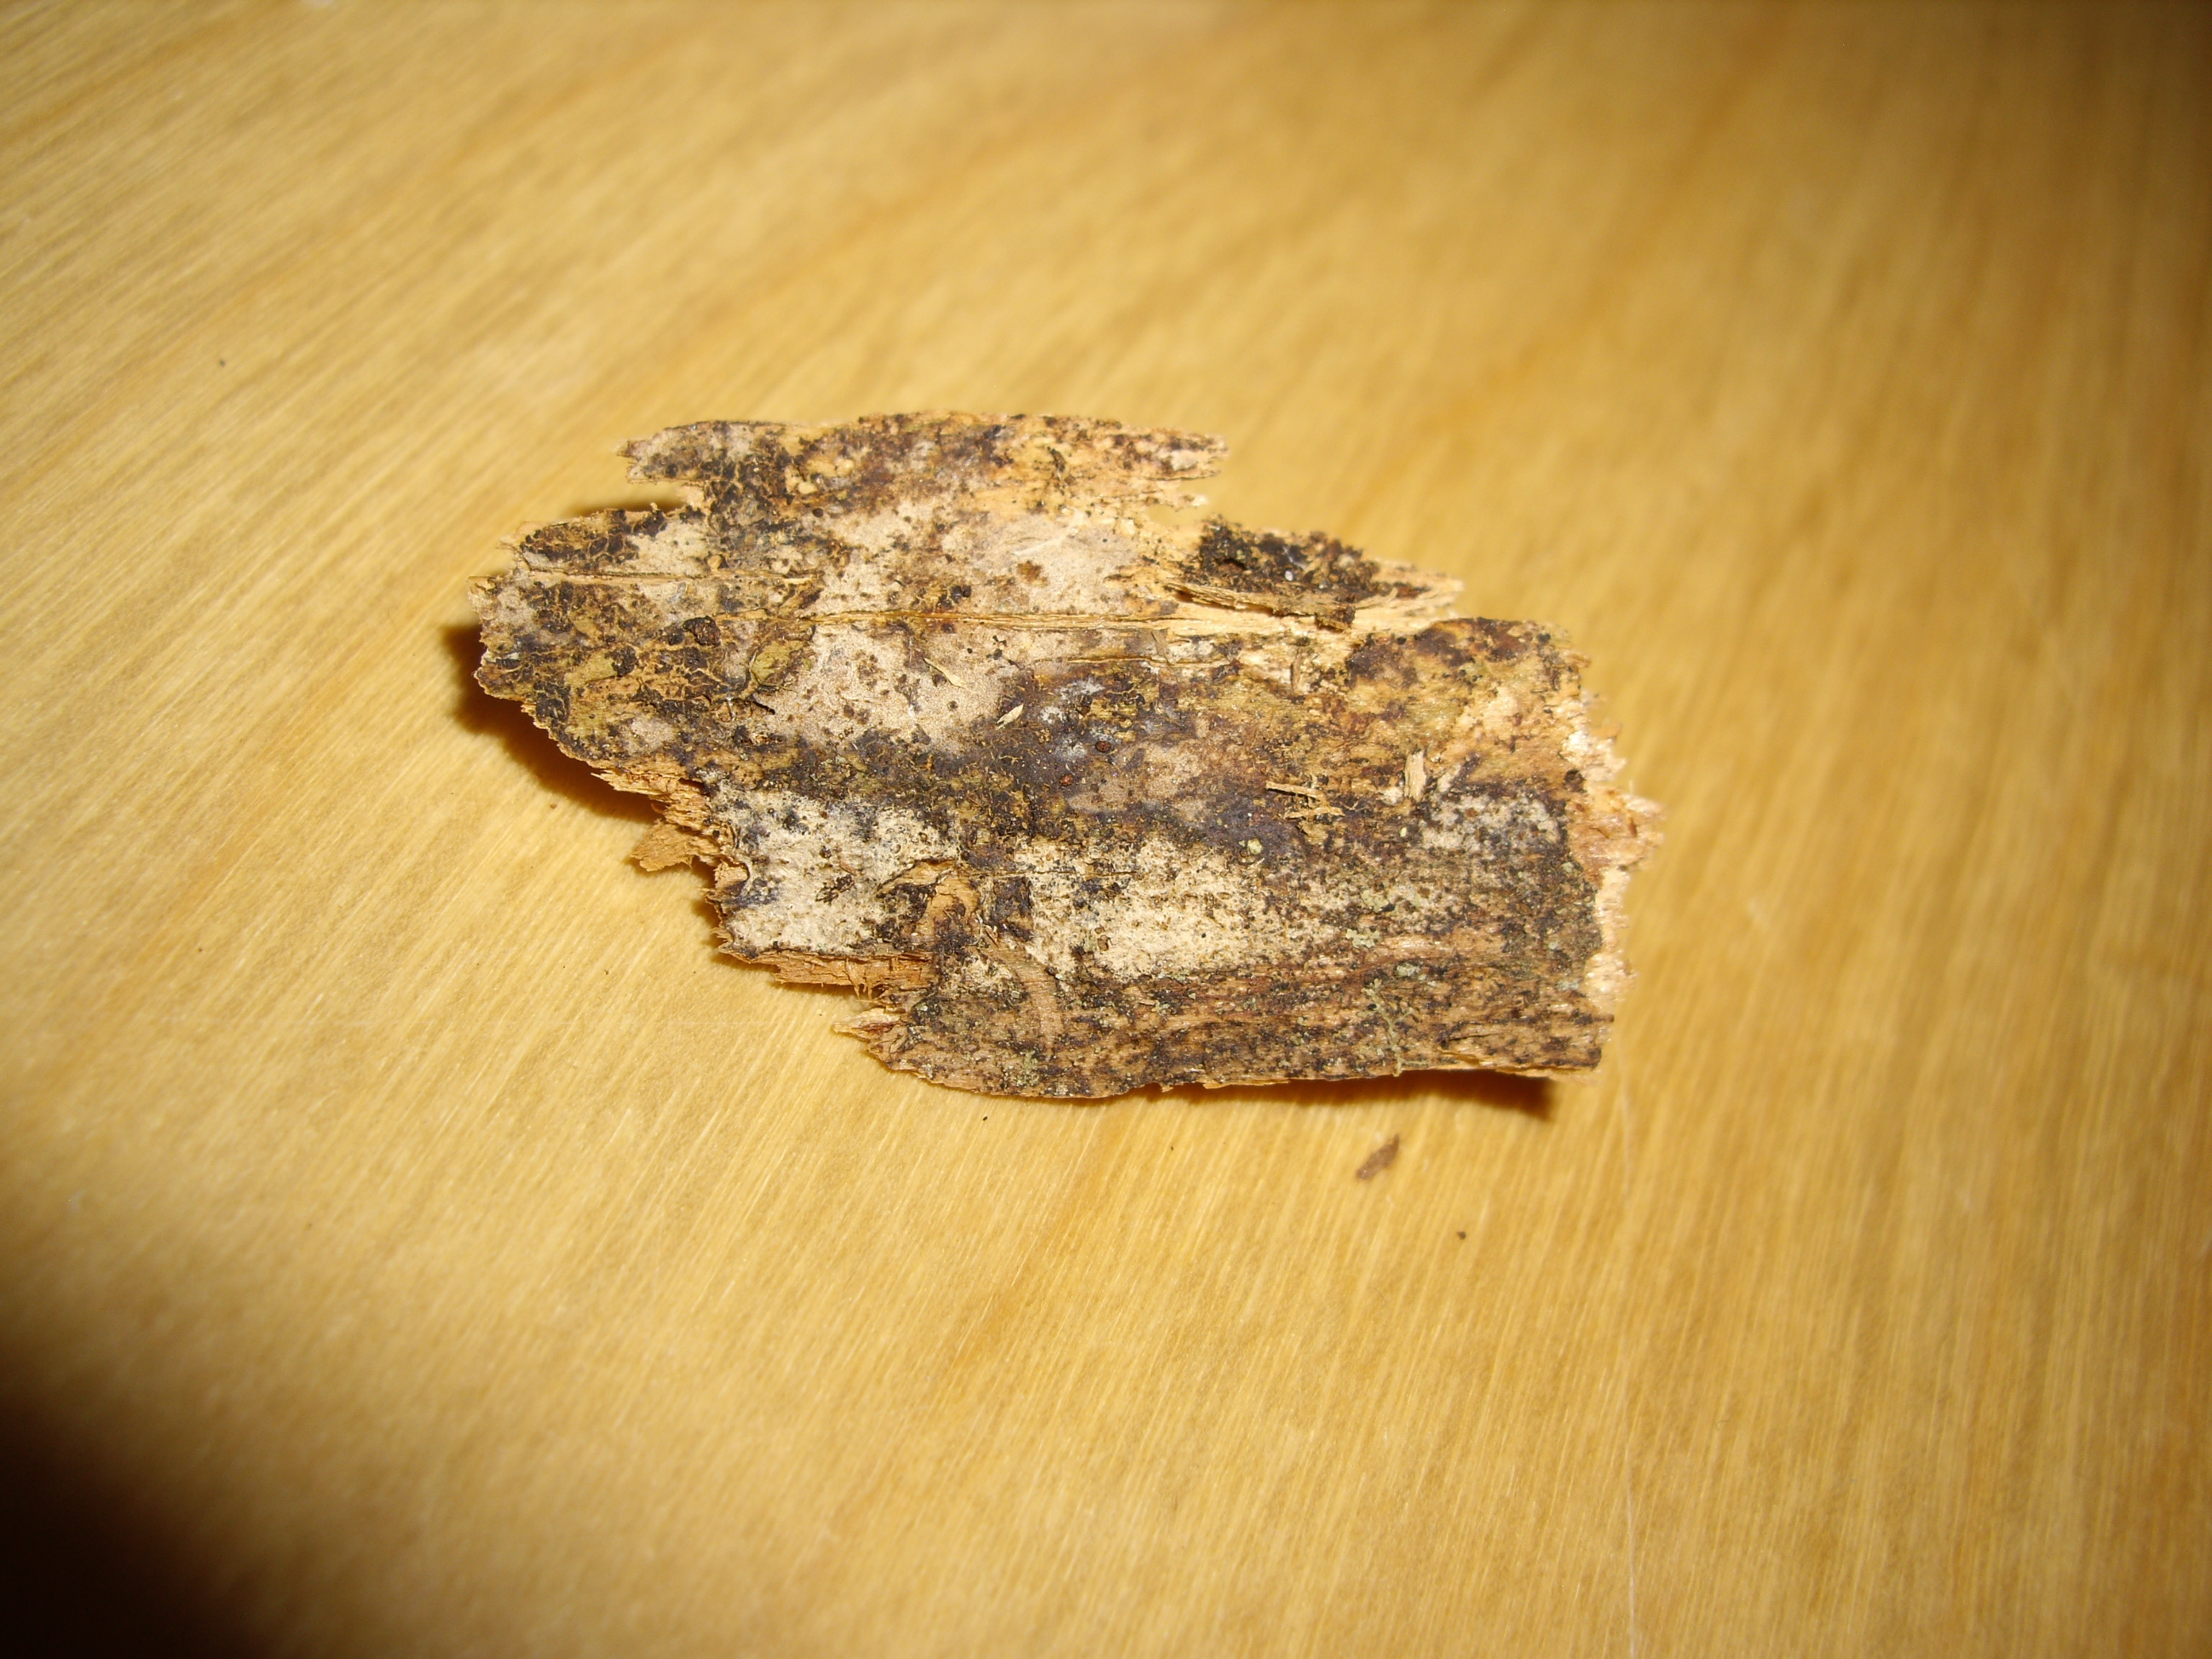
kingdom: Fungi
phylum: Basidiomycota
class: Agaricomycetes
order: Hymenochaetales
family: Rickenellaceae
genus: Peniophorella
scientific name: Peniophorella pallida
